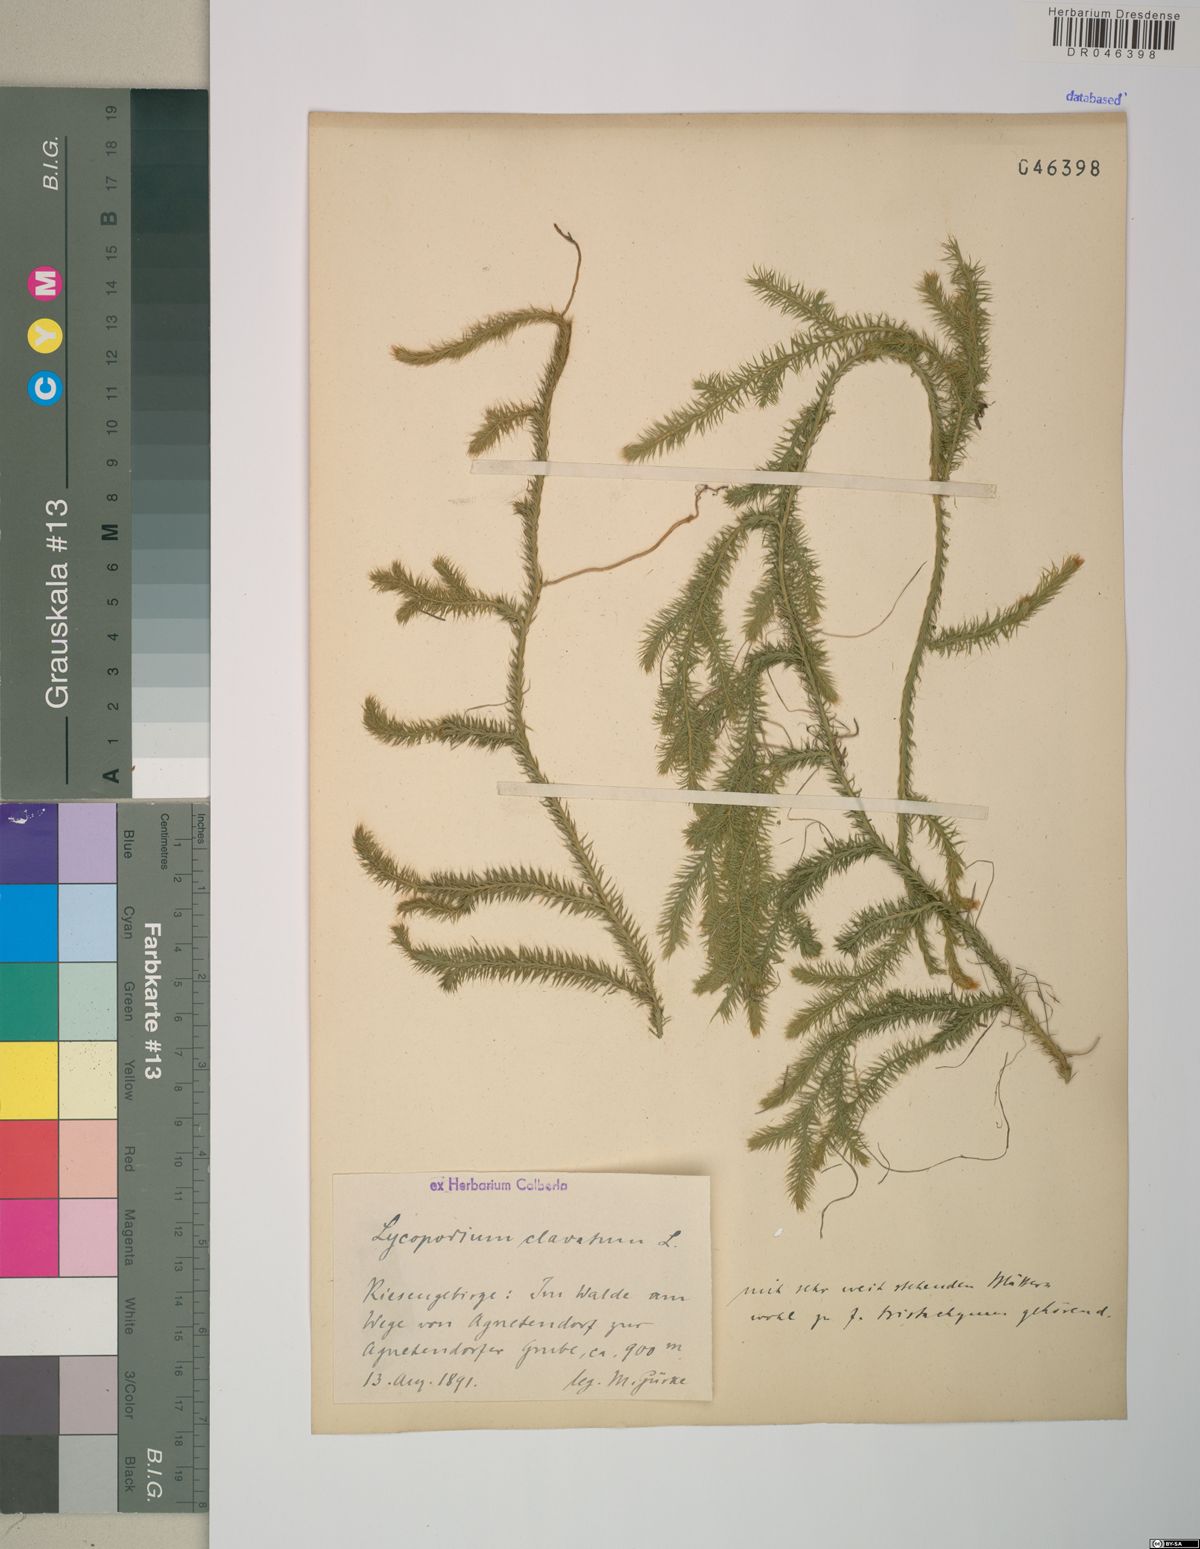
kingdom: Plantae
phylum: Tracheophyta
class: Lycopodiopsida
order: Lycopodiales
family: Lycopodiaceae
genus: Lycopodium
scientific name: Lycopodium clavatum
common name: Stag's-horn clubmoss
